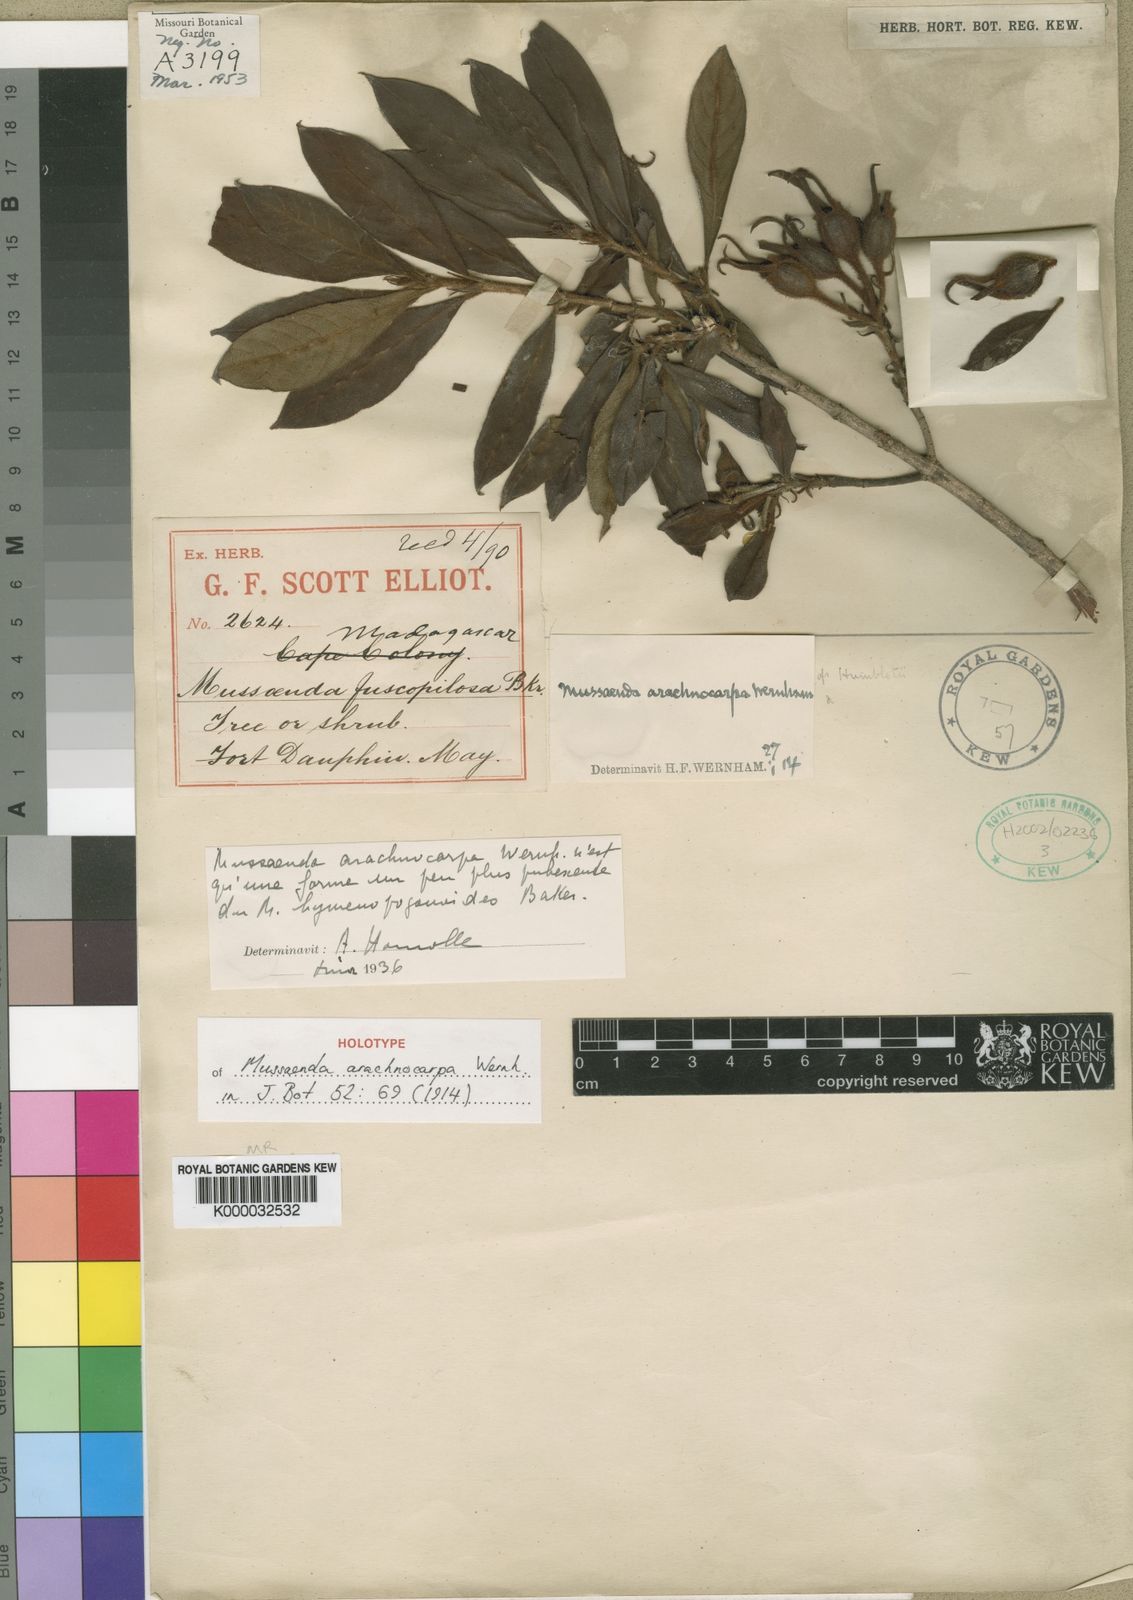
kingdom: Plantae
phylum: Tracheophyta
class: Magnoliopsida
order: Gentianales
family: Rubiaceae
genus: Bremeria
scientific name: Bremeria arachnocarpa
